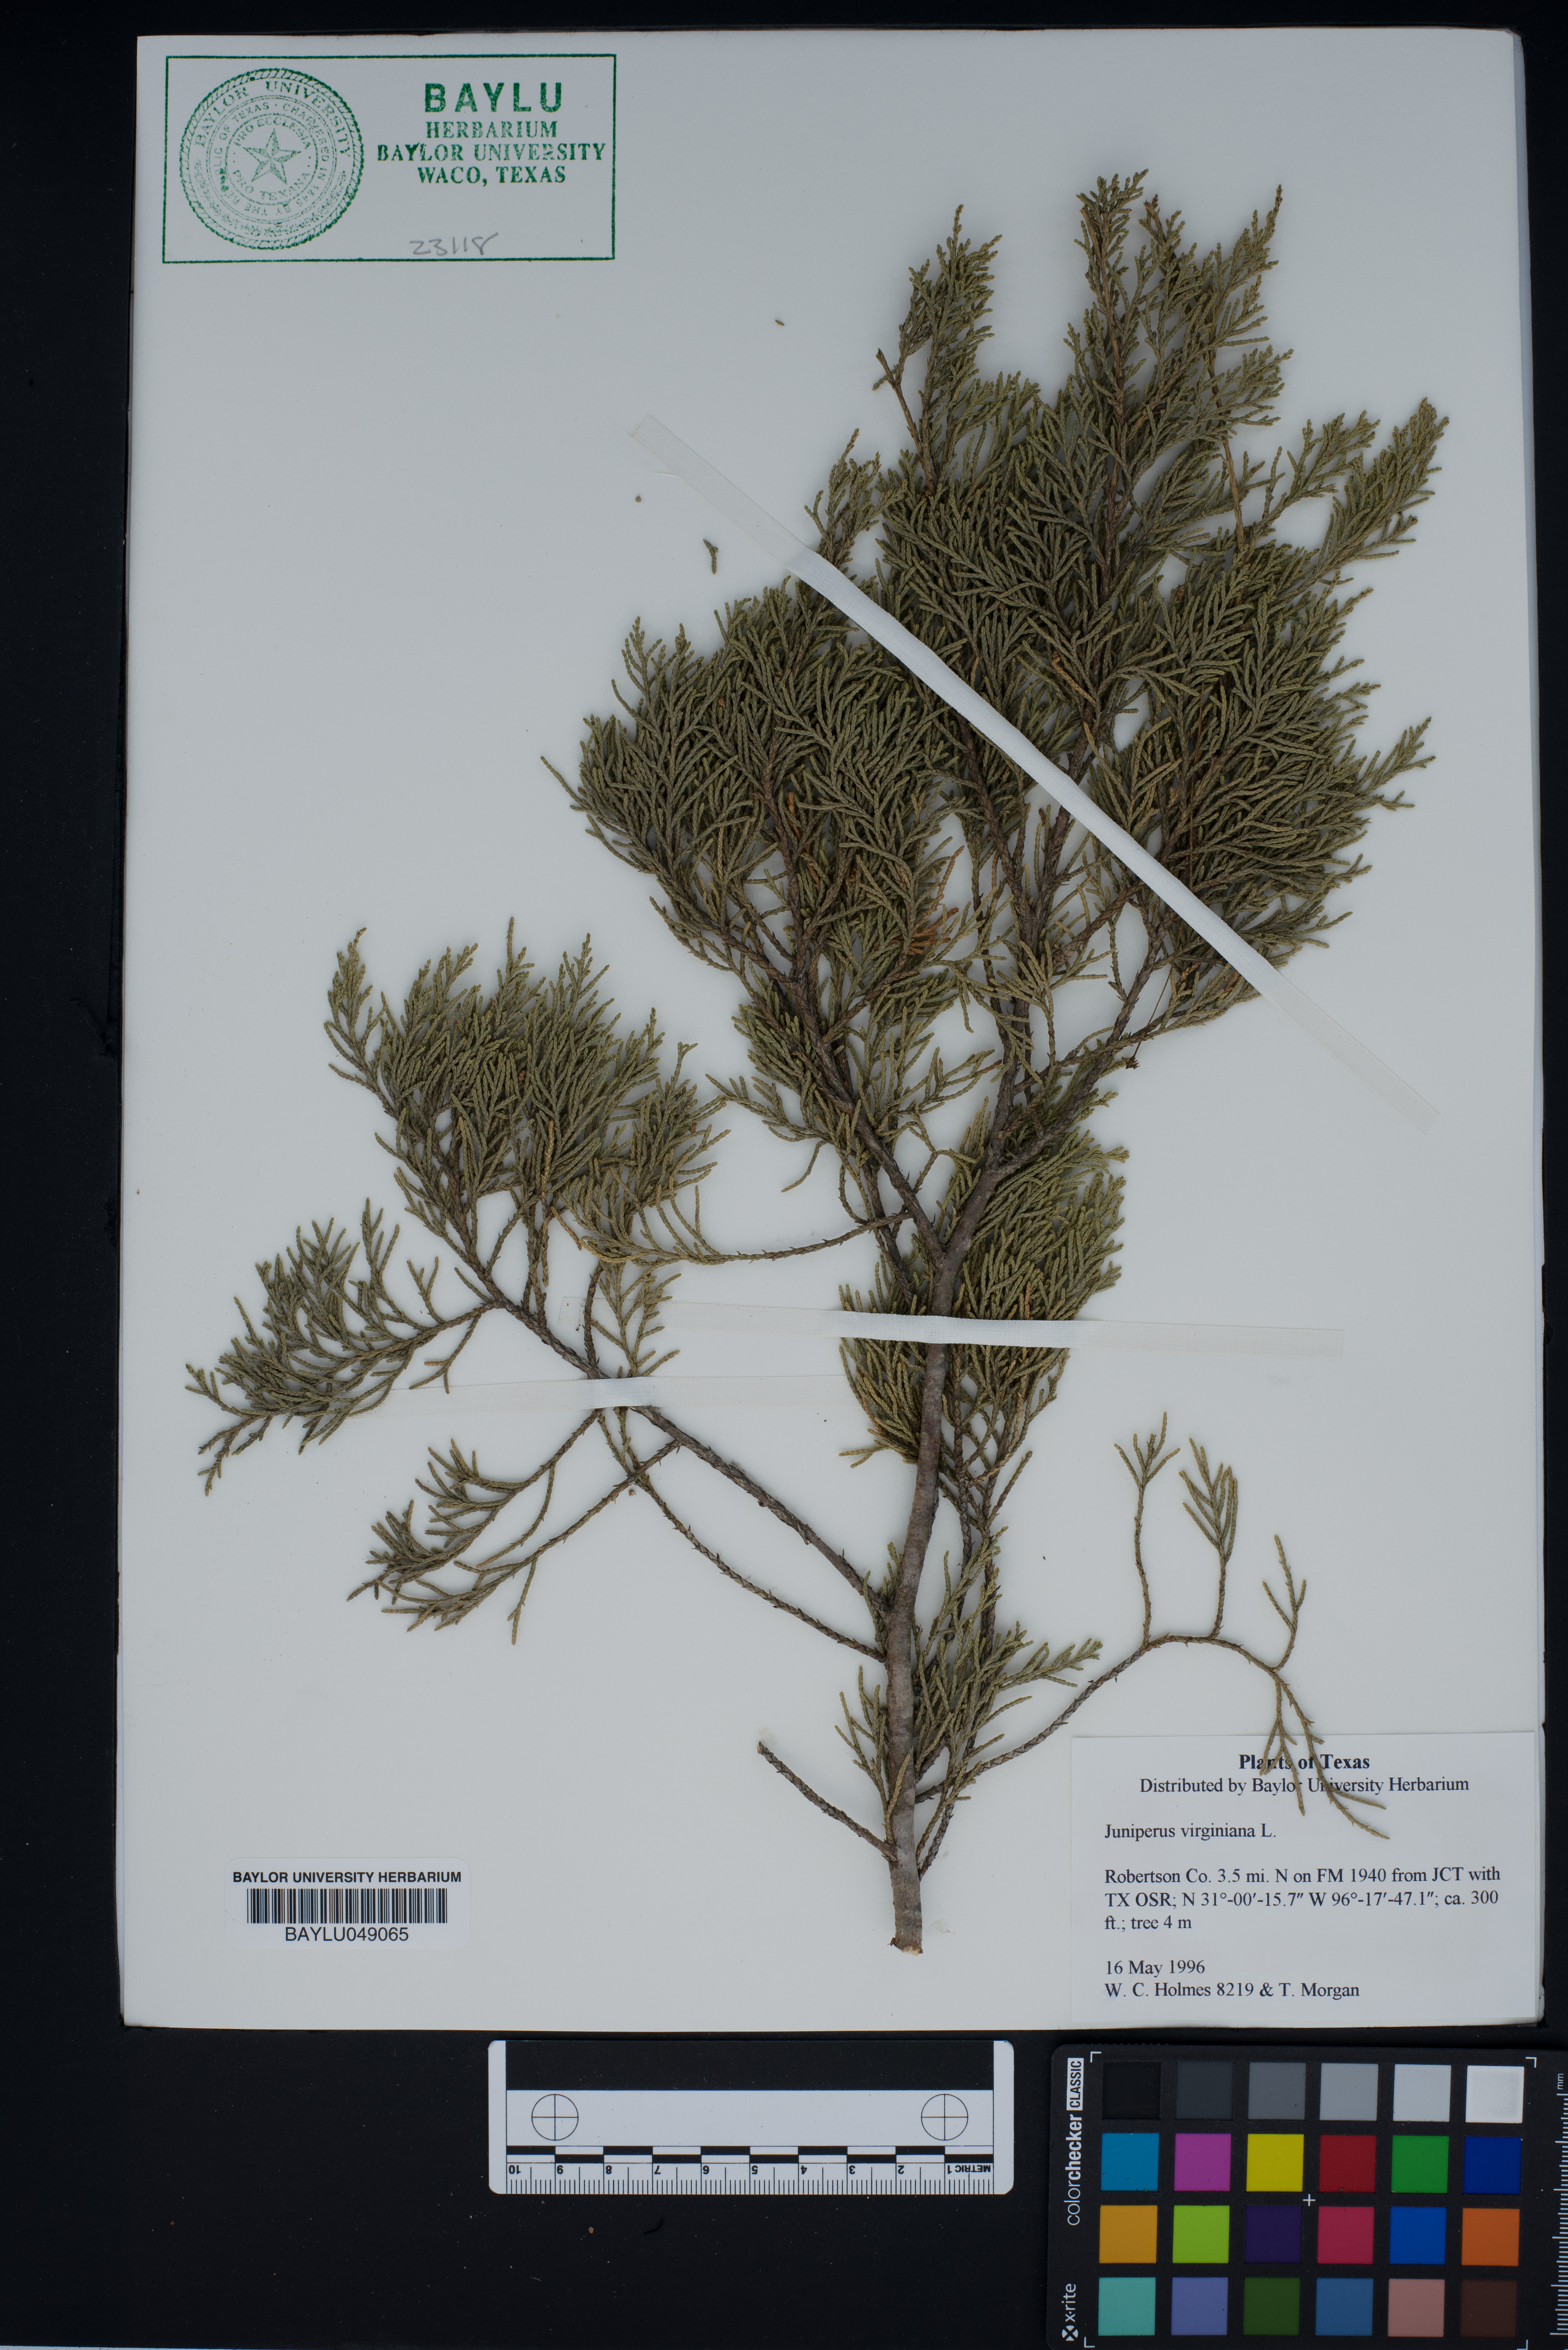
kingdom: Plantae
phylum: Tracheophyta
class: Pinopsida
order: Pinales
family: Cupressaceae
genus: Juniperus
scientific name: Juniperus virginiana
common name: Red juniper
